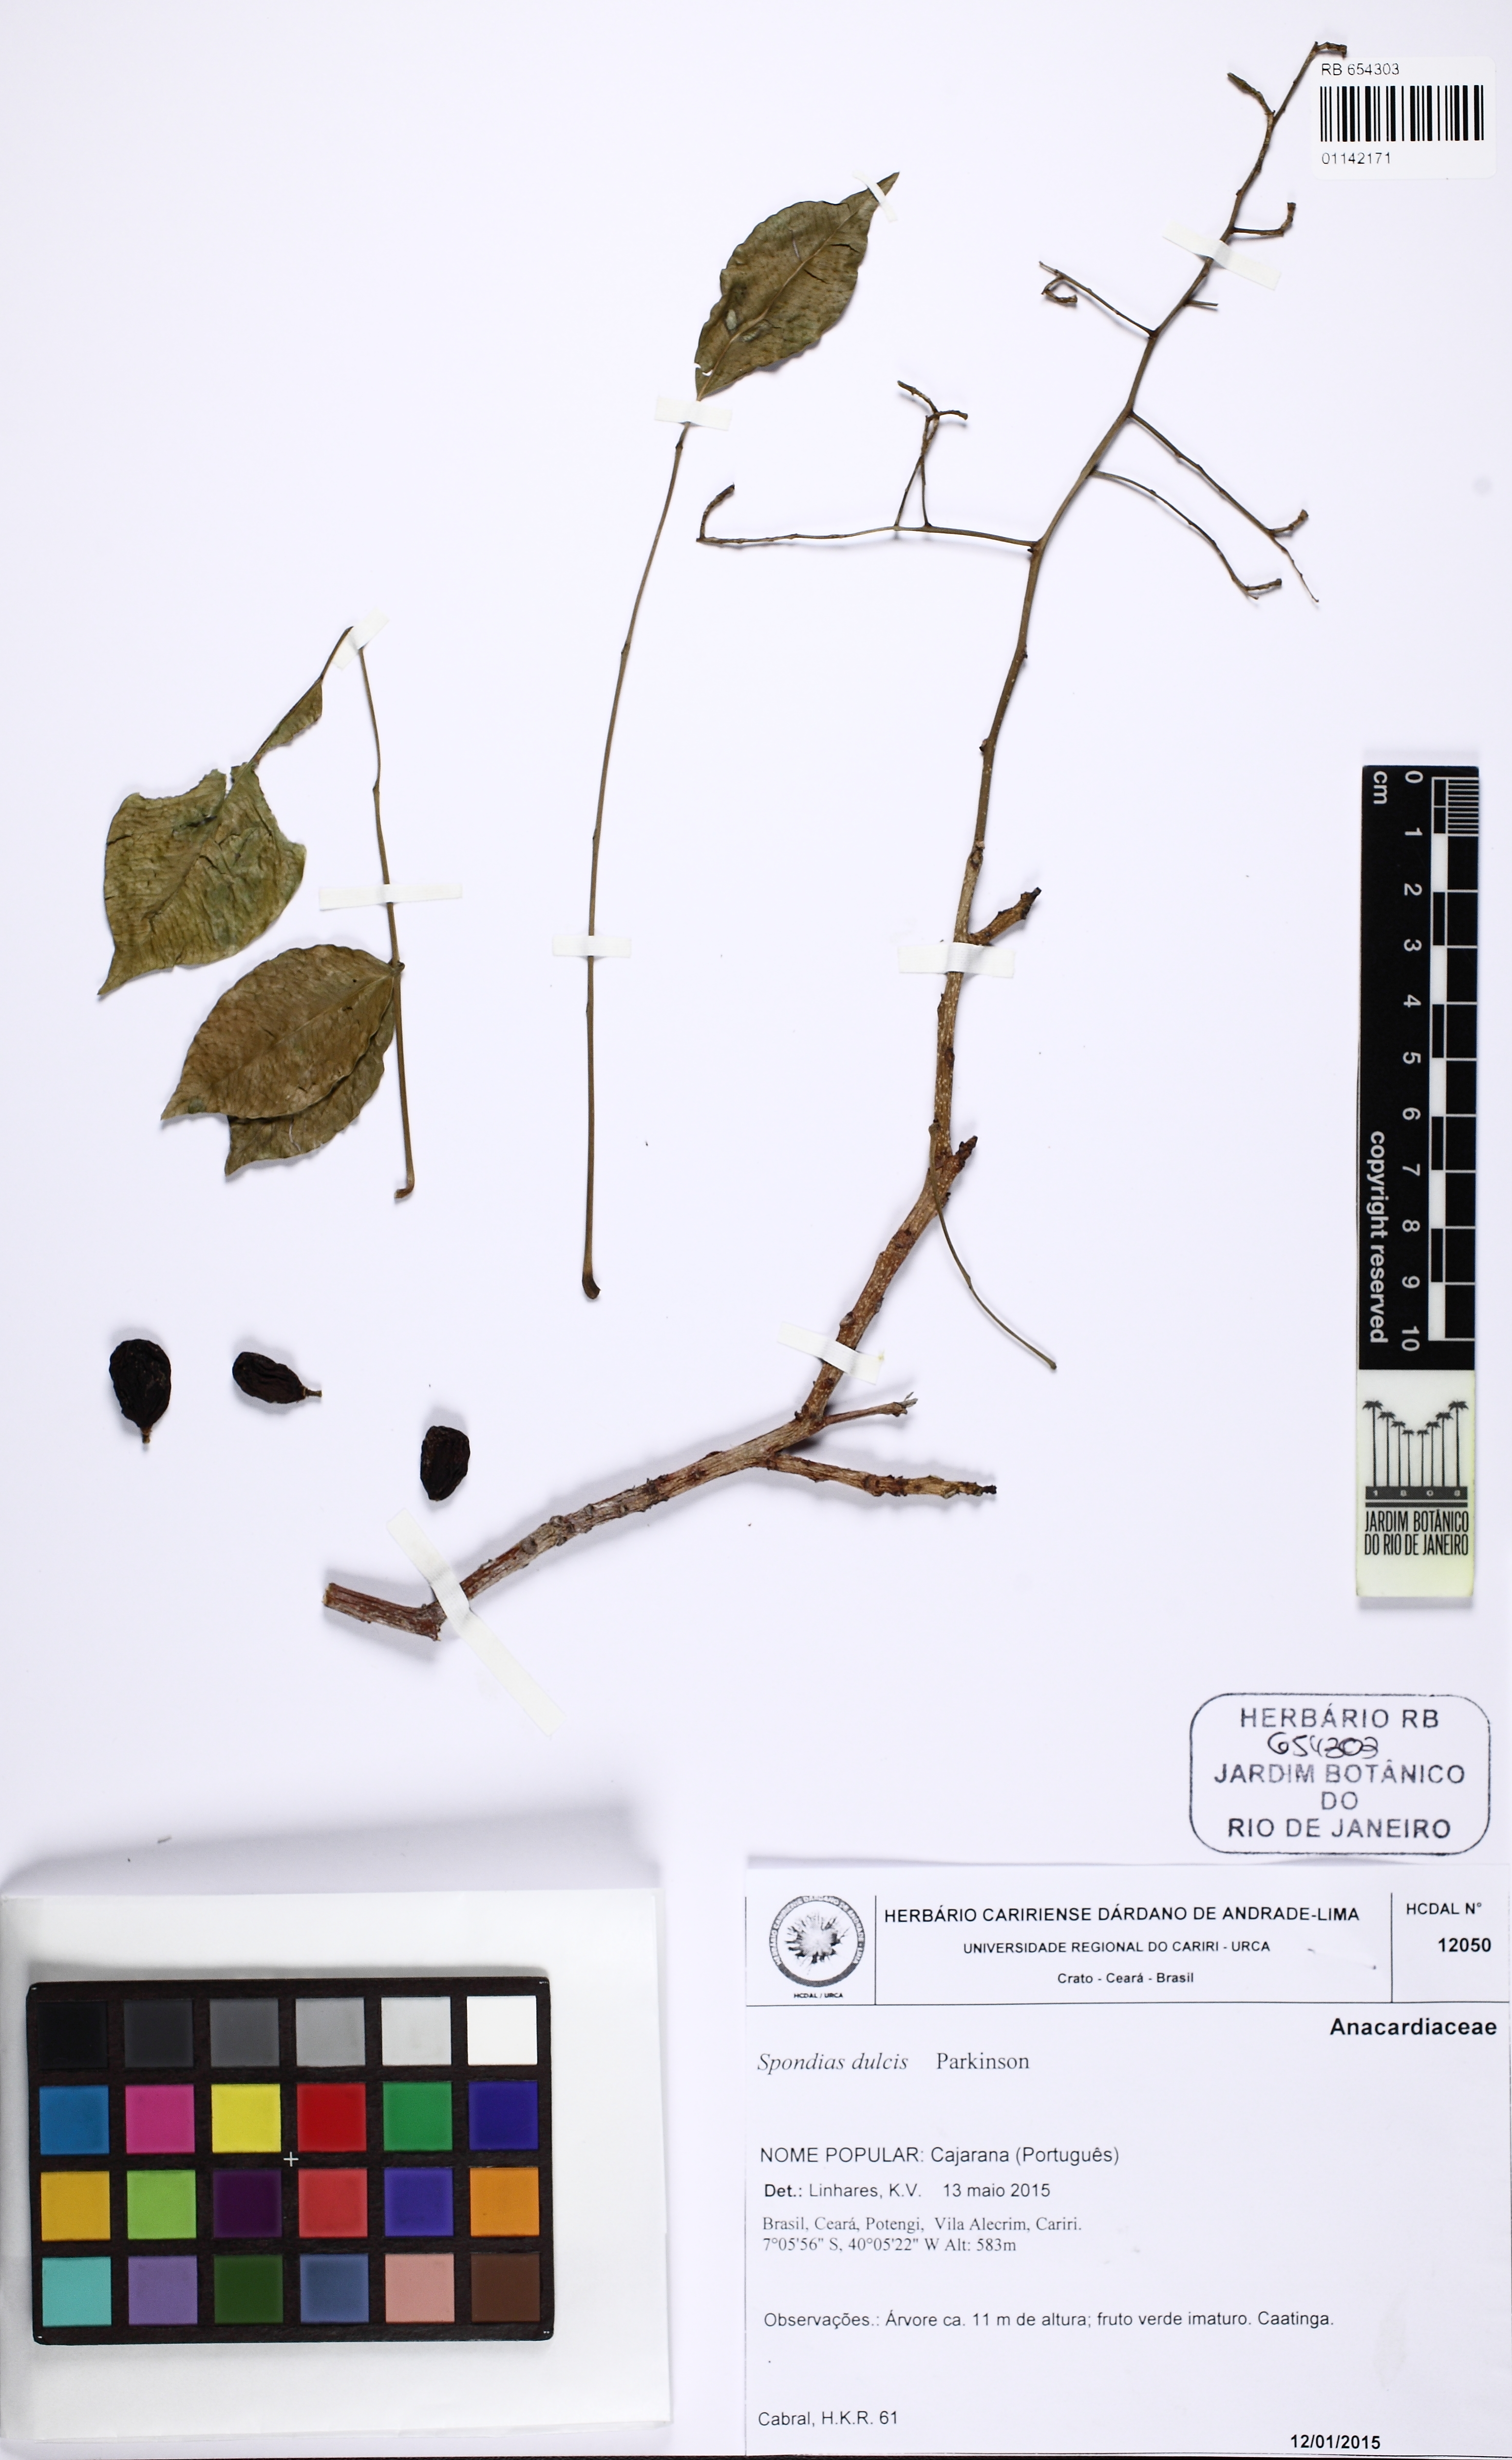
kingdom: Plantae
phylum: Tracheophyta
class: Magnoliopsida
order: Sapindales
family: Anacardiaceae
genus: Spondias
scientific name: Spondias dulcis
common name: Ambarella
